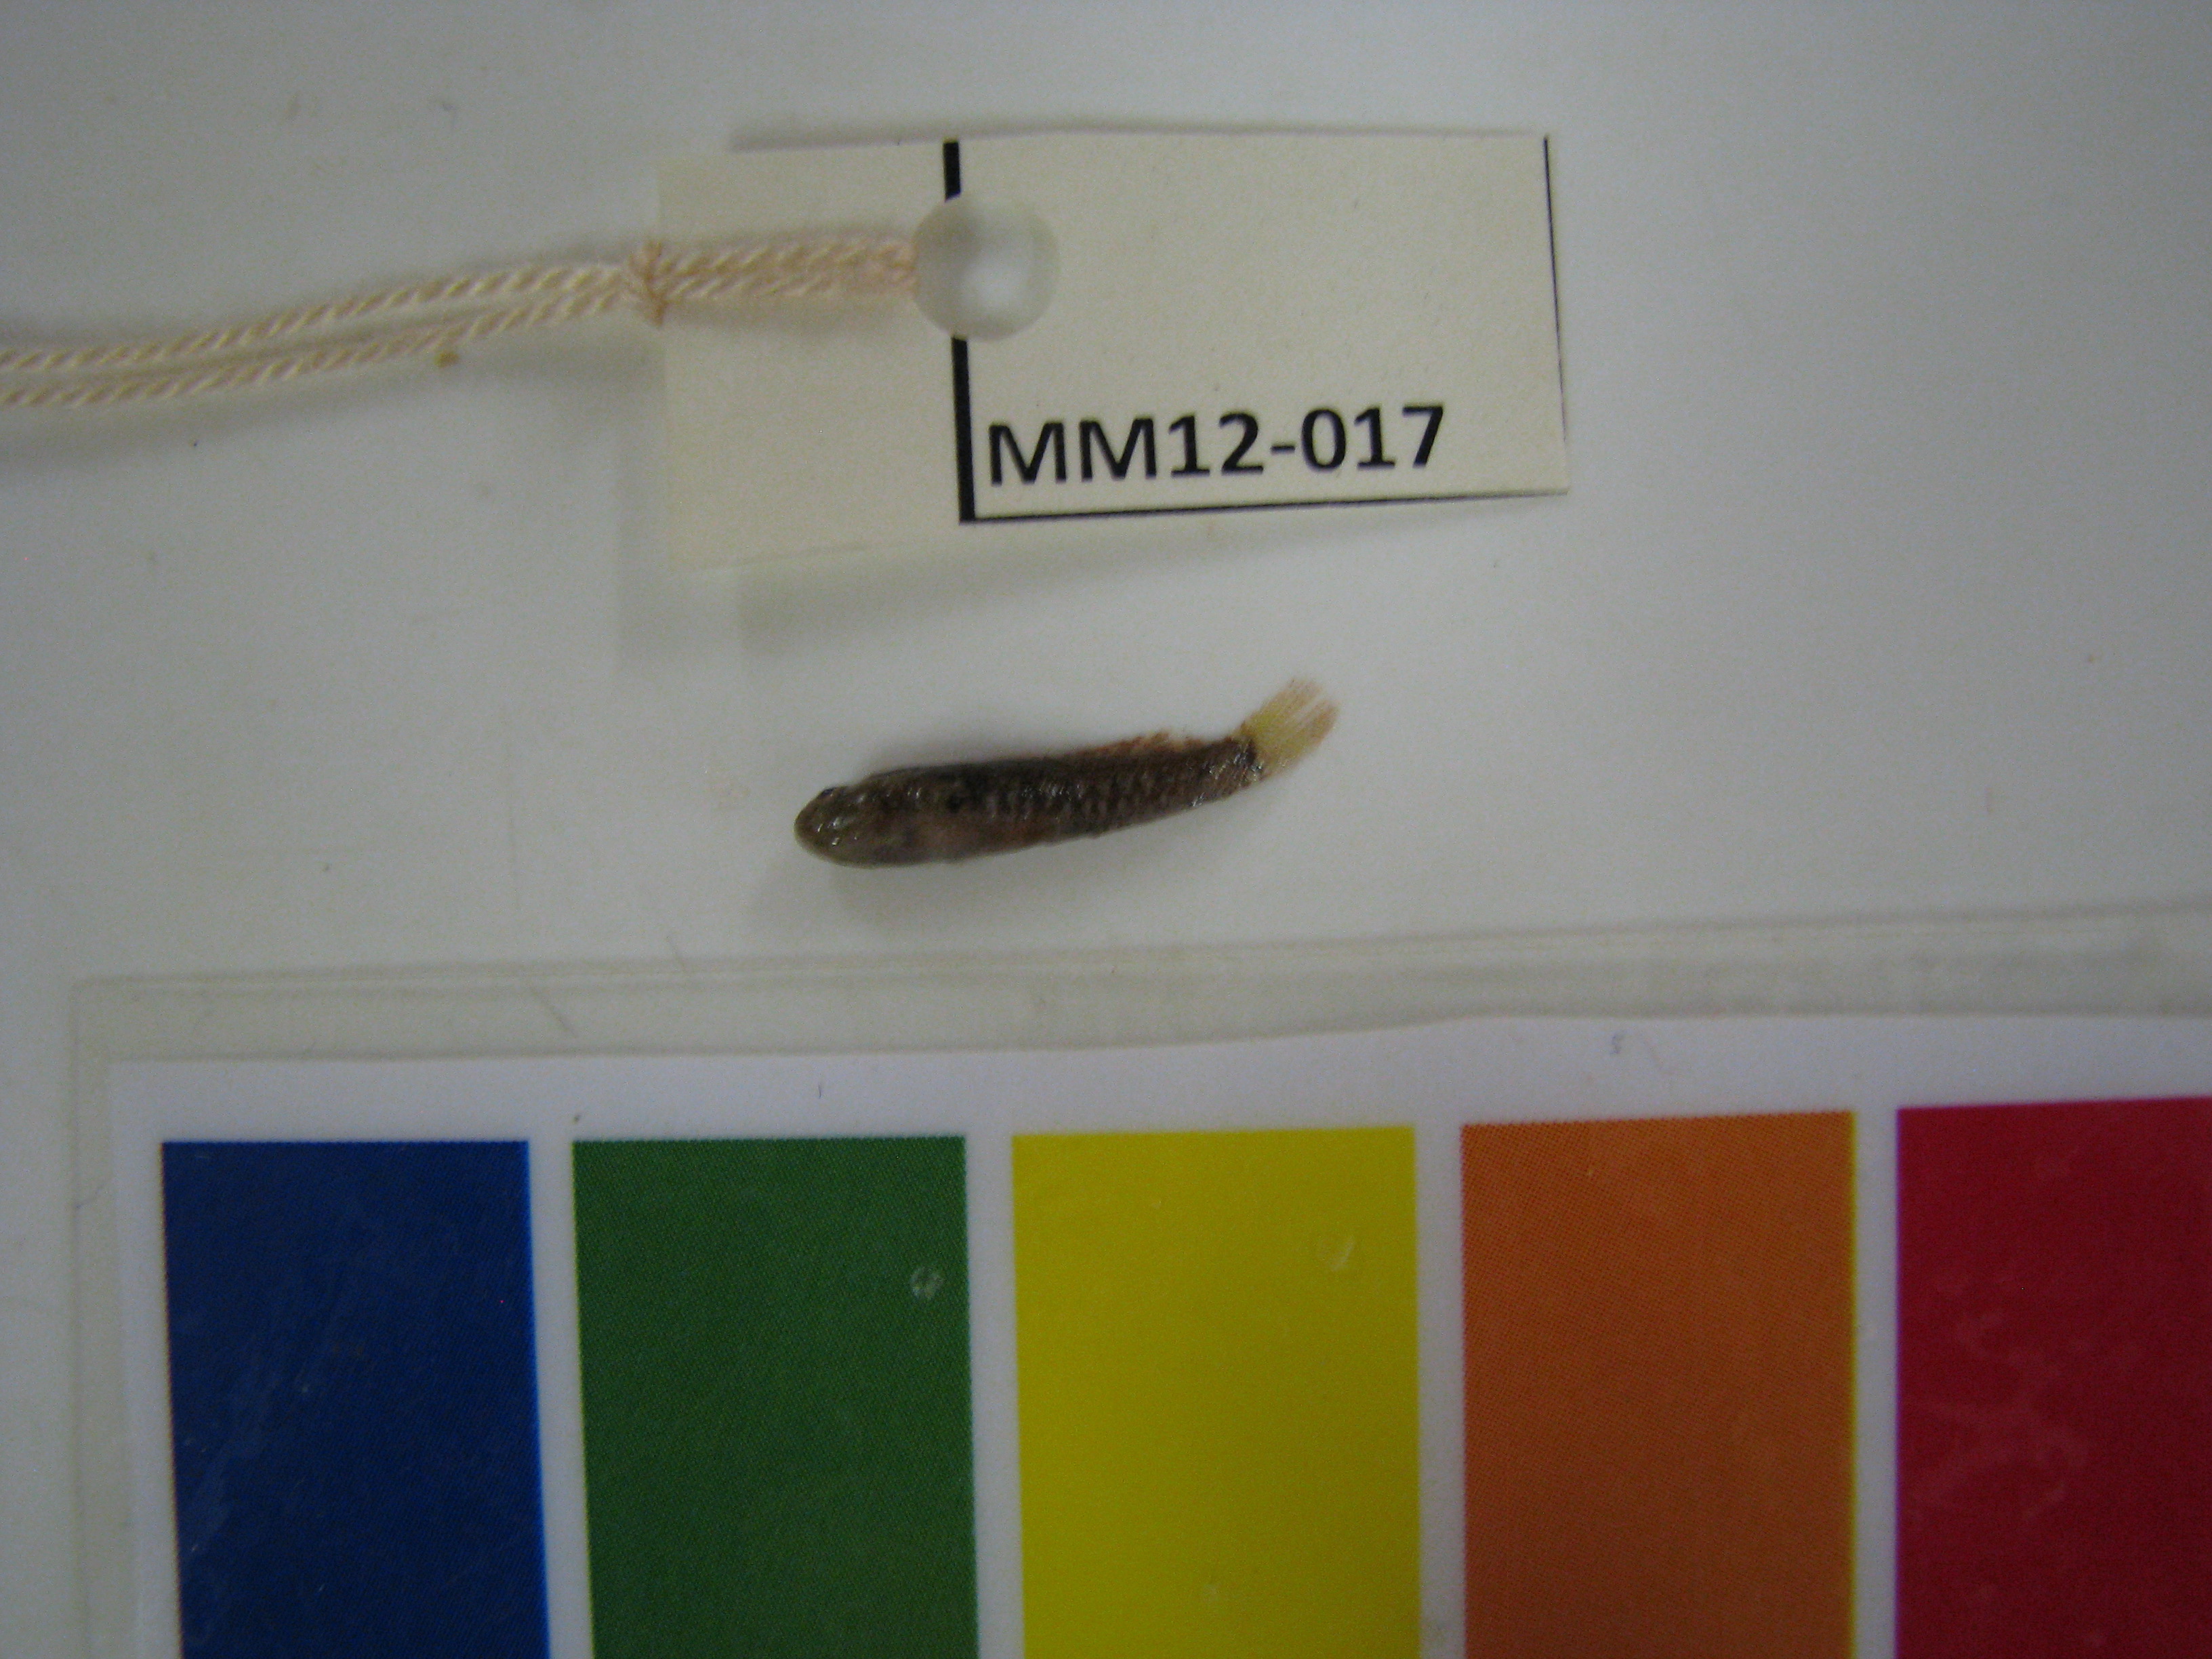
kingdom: Animalia
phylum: Chordata
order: Perciformes
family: Gobiidae
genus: Caffrogobius
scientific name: Caffrogobius nudiceps
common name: Barehead goby
